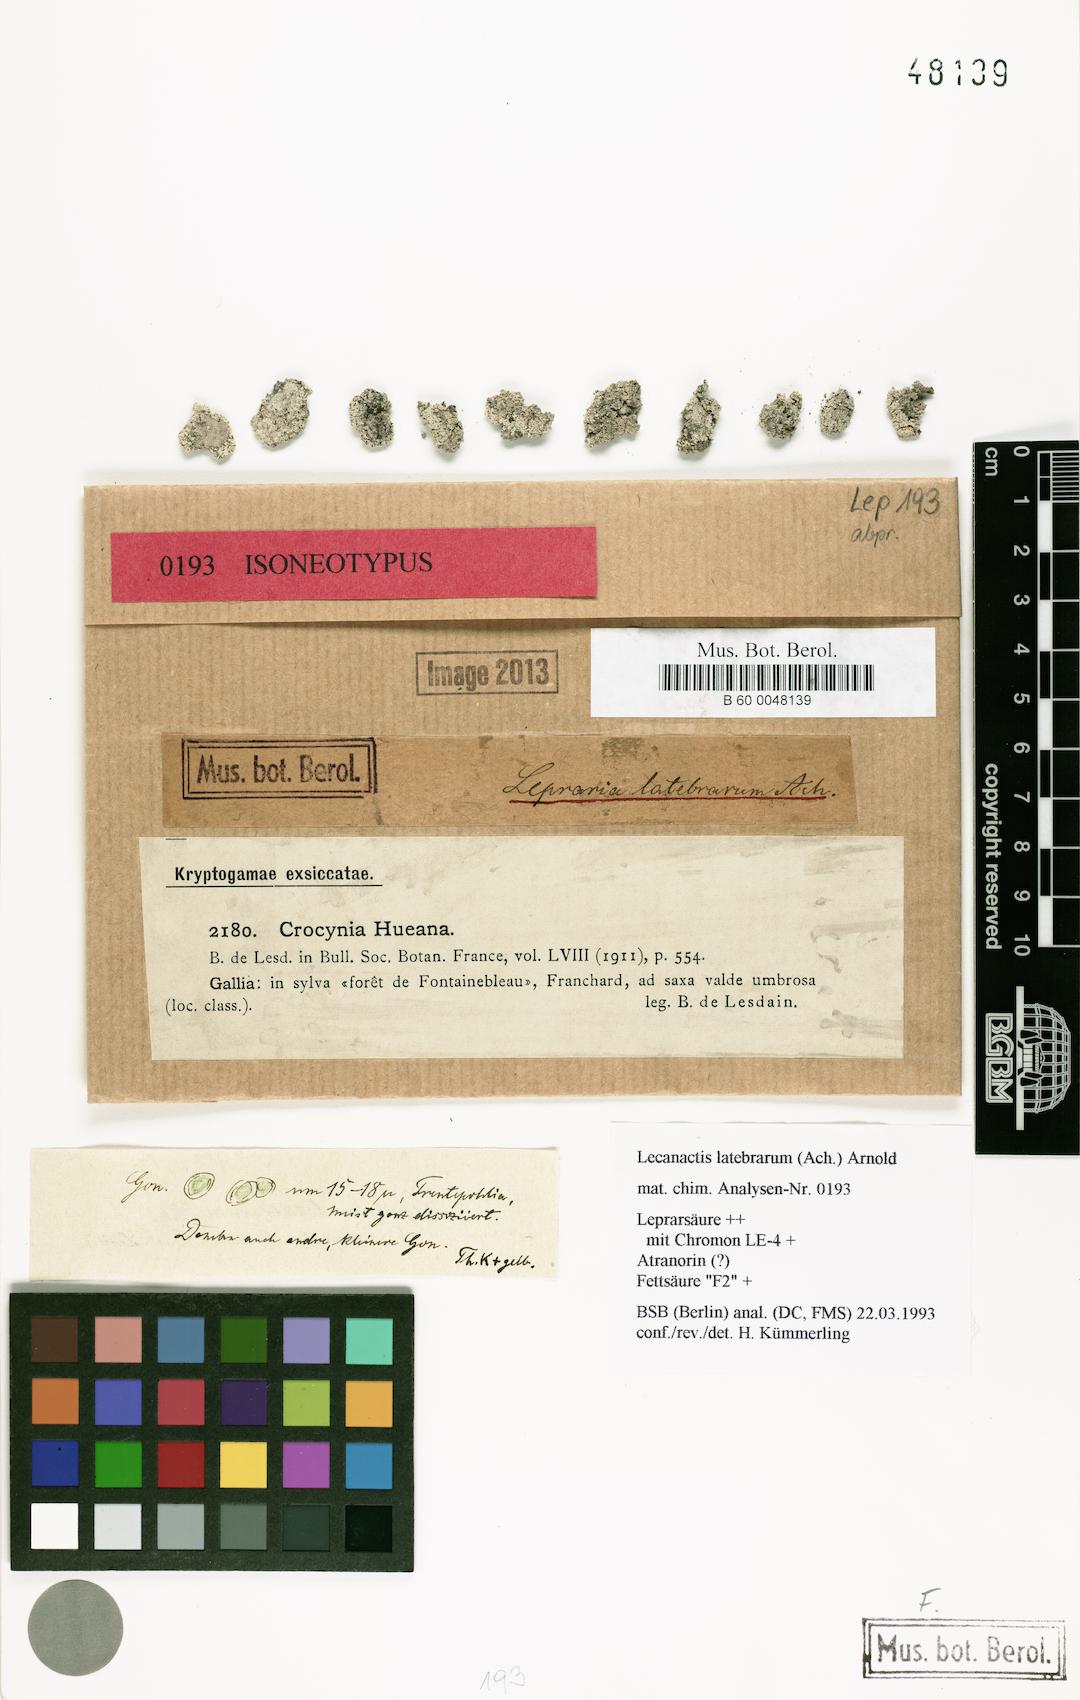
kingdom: Fungi
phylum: Ascomycota
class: Arthoniomycetes
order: Arthoniales
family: Roccellaceae
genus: Dendrographa
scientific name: Dendrographa latebrarum
